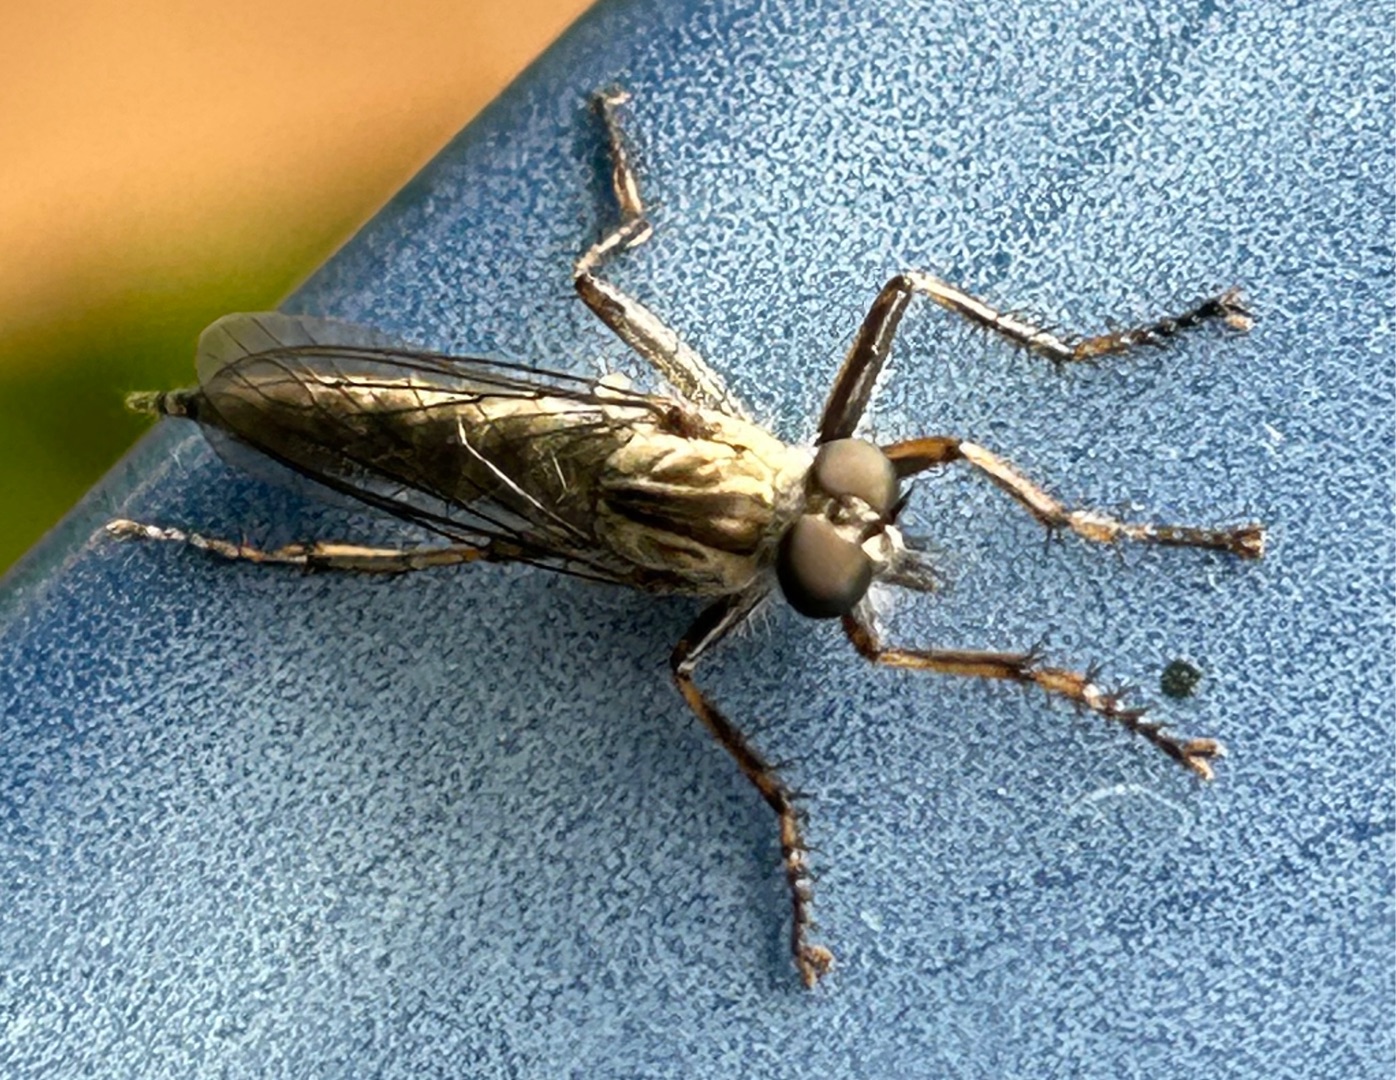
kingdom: Animalia
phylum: Arthropoda
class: Insecta
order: Diptera
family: Asilidae
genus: Machimus
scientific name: Machimus atricapillus
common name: Sort hårrovflue
